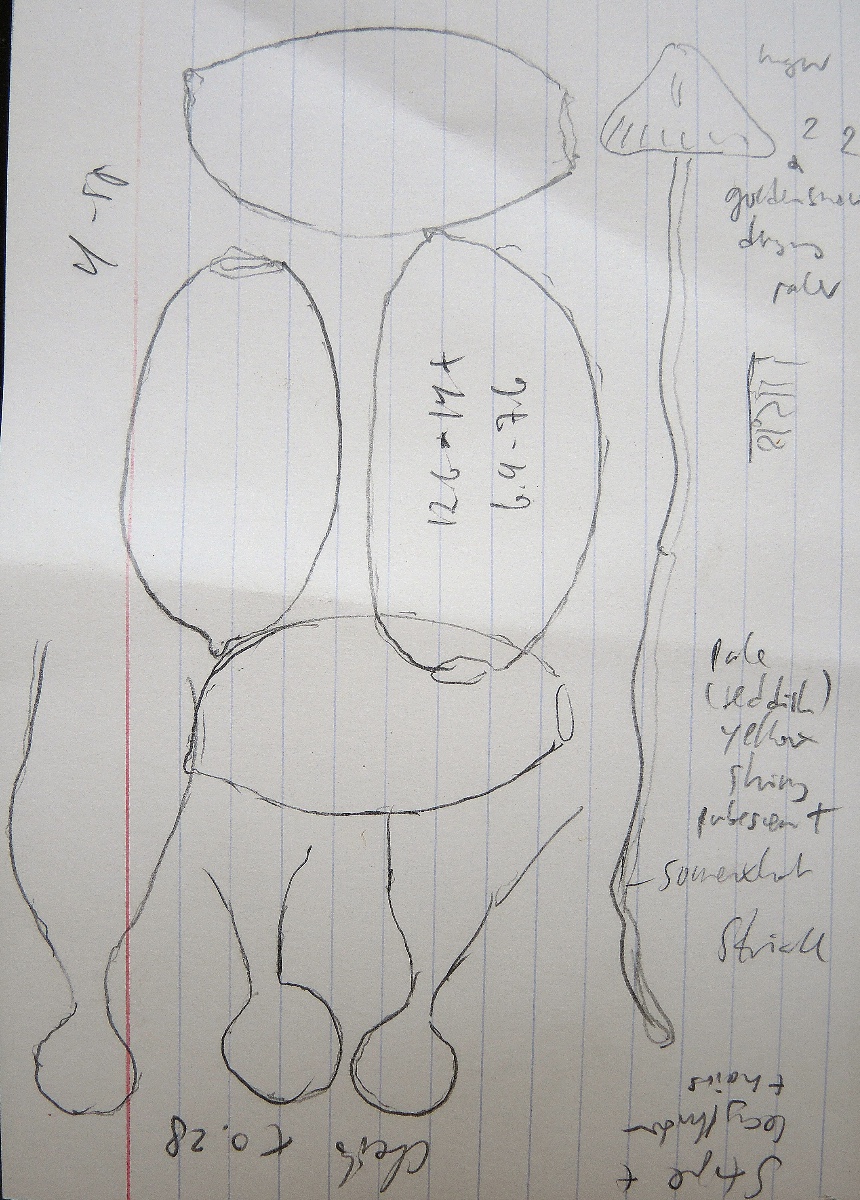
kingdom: Fungi
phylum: Basidiomycota
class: Agaricomycetes
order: Agaricales
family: Bolbitiaceae
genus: Conocybe
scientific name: Conocybe
